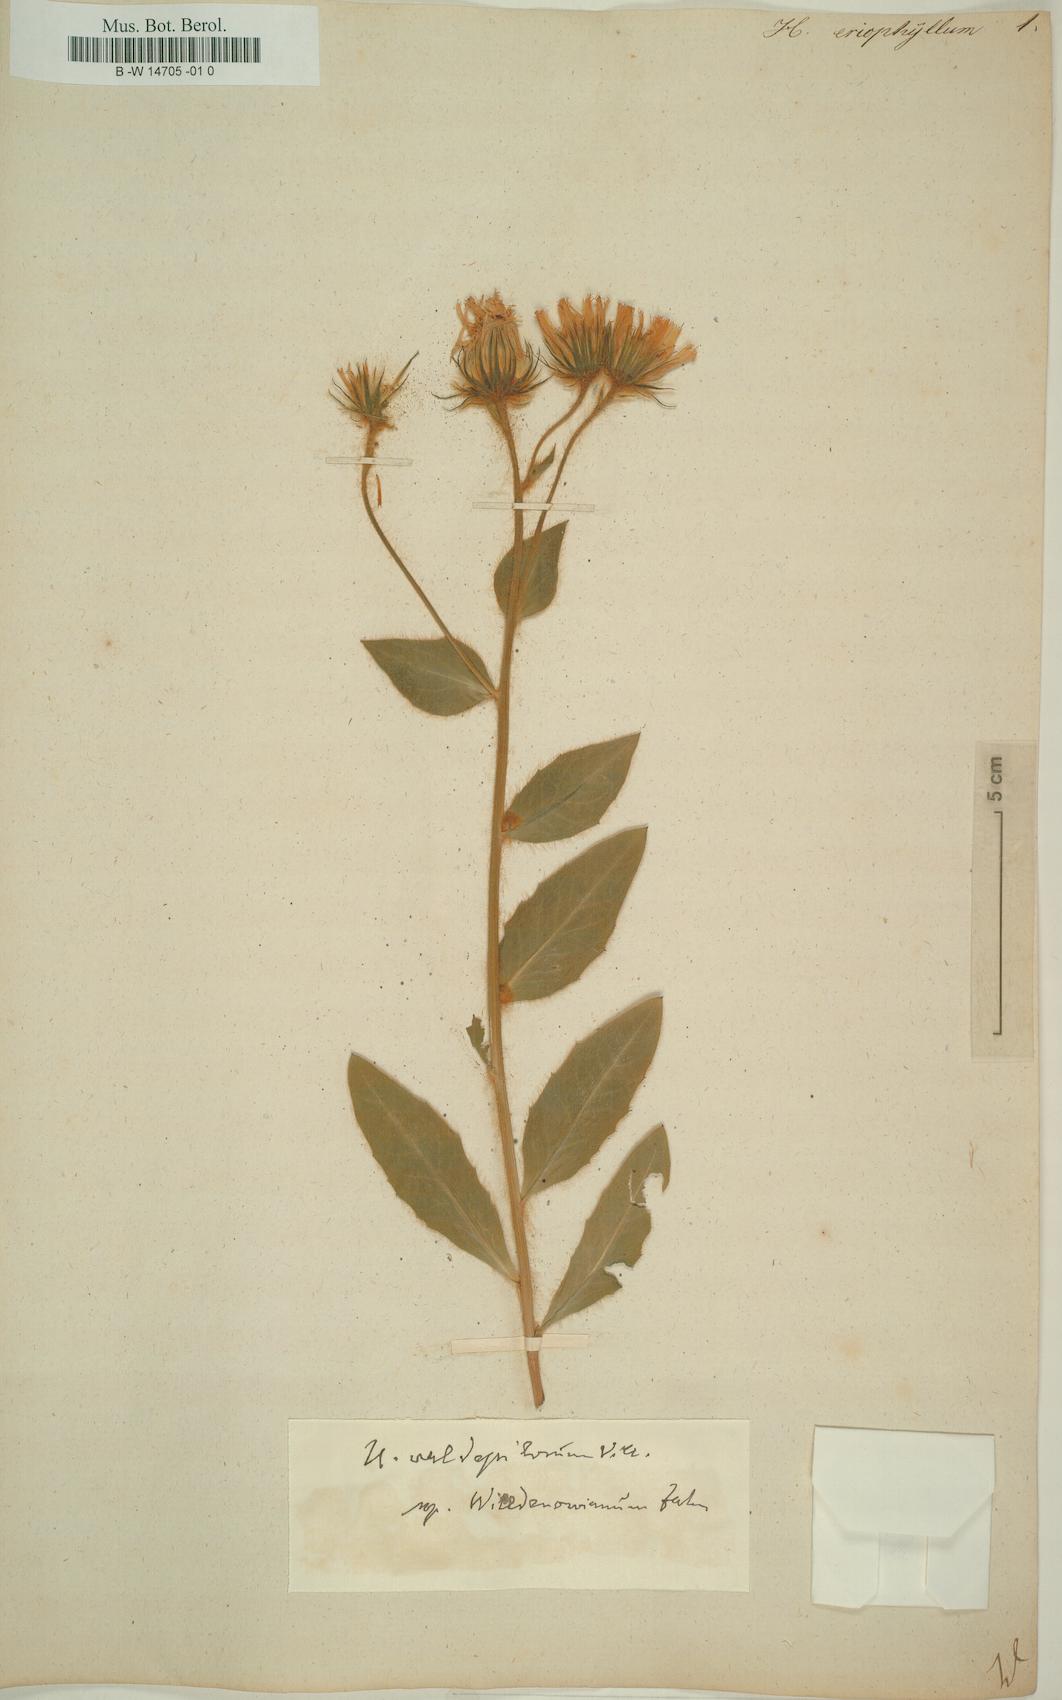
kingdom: Plantae
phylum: Tracheophyta
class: Magnoliopsida
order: Asterales
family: Asteraceae
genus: Hieracium
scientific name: Hieracium villosum
